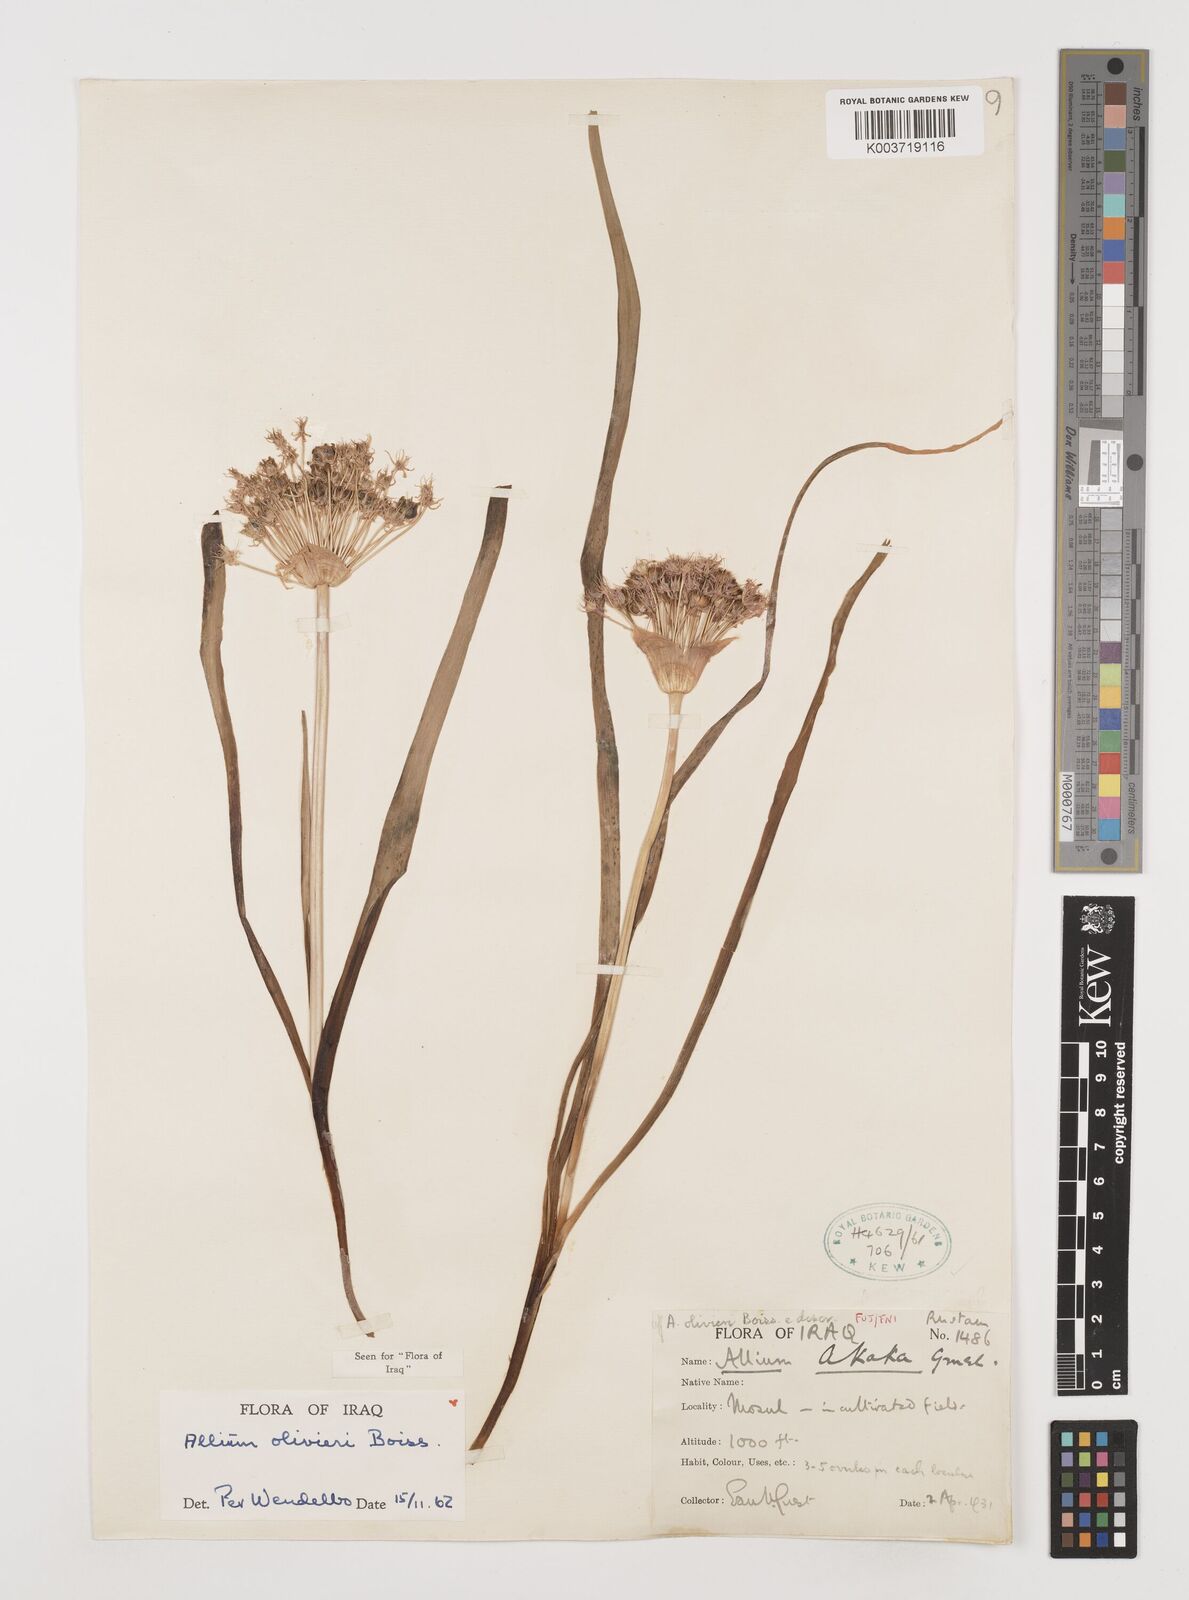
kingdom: Plantae
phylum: Tracheophyta
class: Liliopsida
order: Asparagales
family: Amaryllidaceae
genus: Allium
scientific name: Allium olivieri
